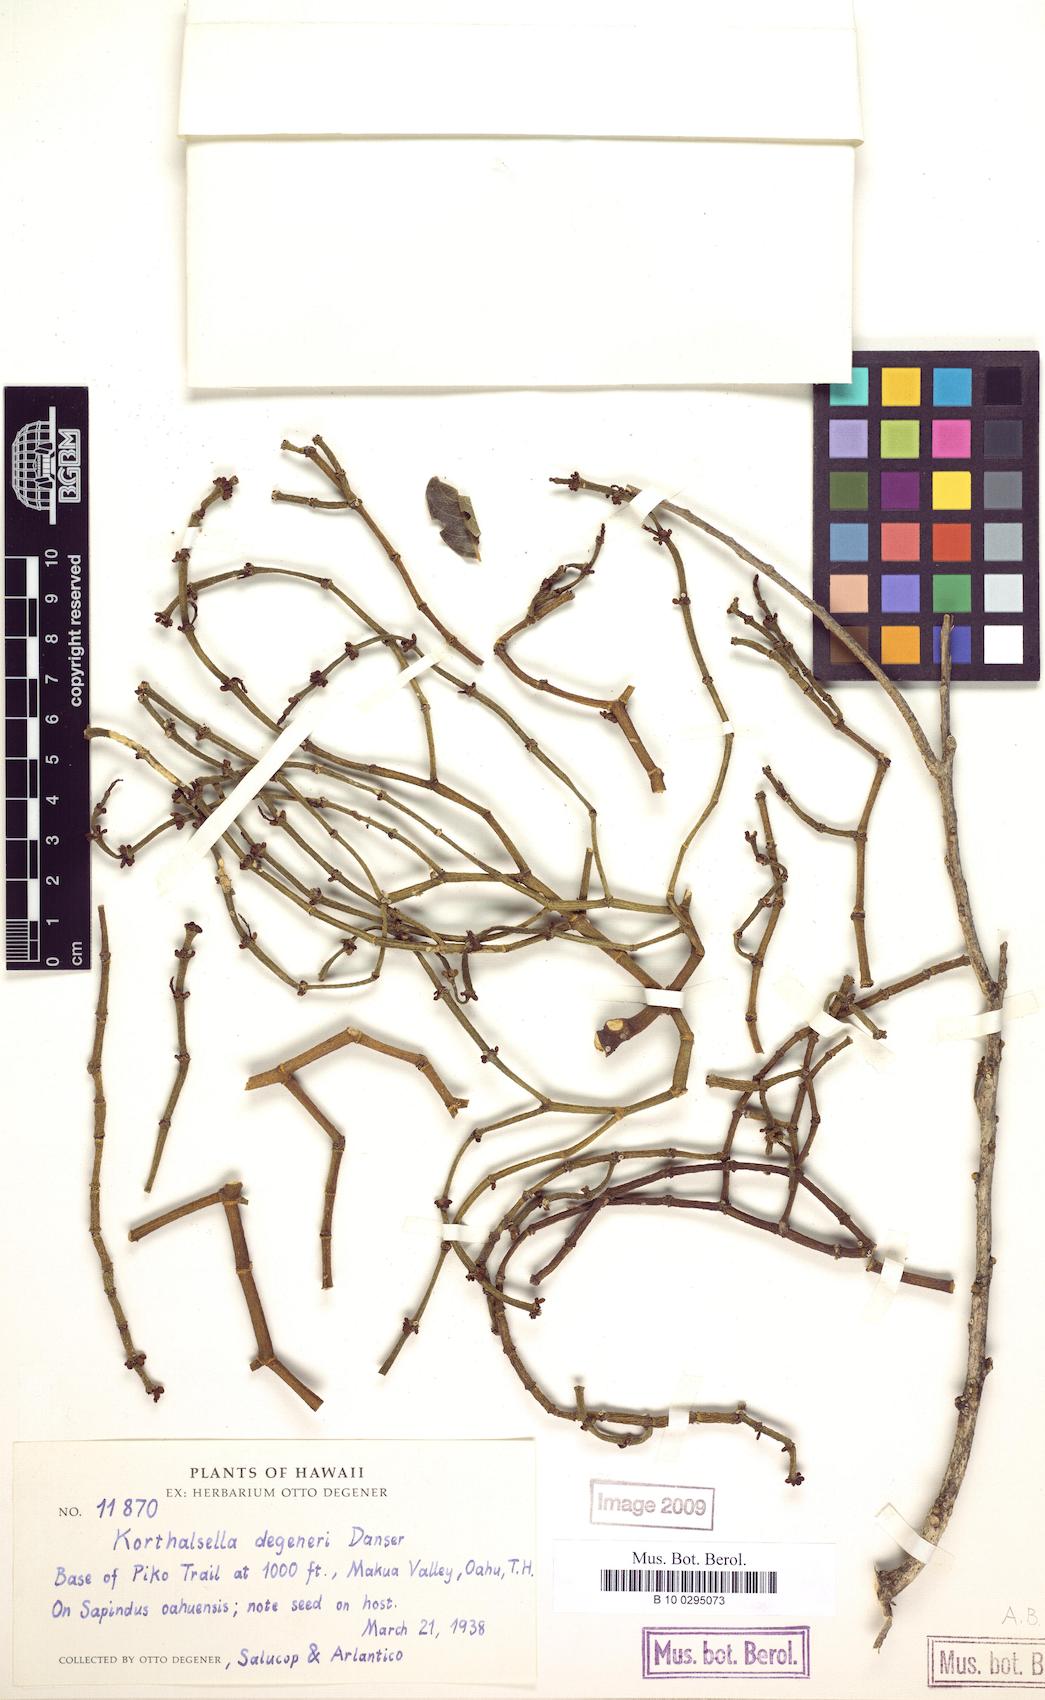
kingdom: Plantae
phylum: Tracheophyta
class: Magnoliopsida
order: Santalales
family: Viscaceae
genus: Korthalsella
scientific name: Korthalsella degeneri
